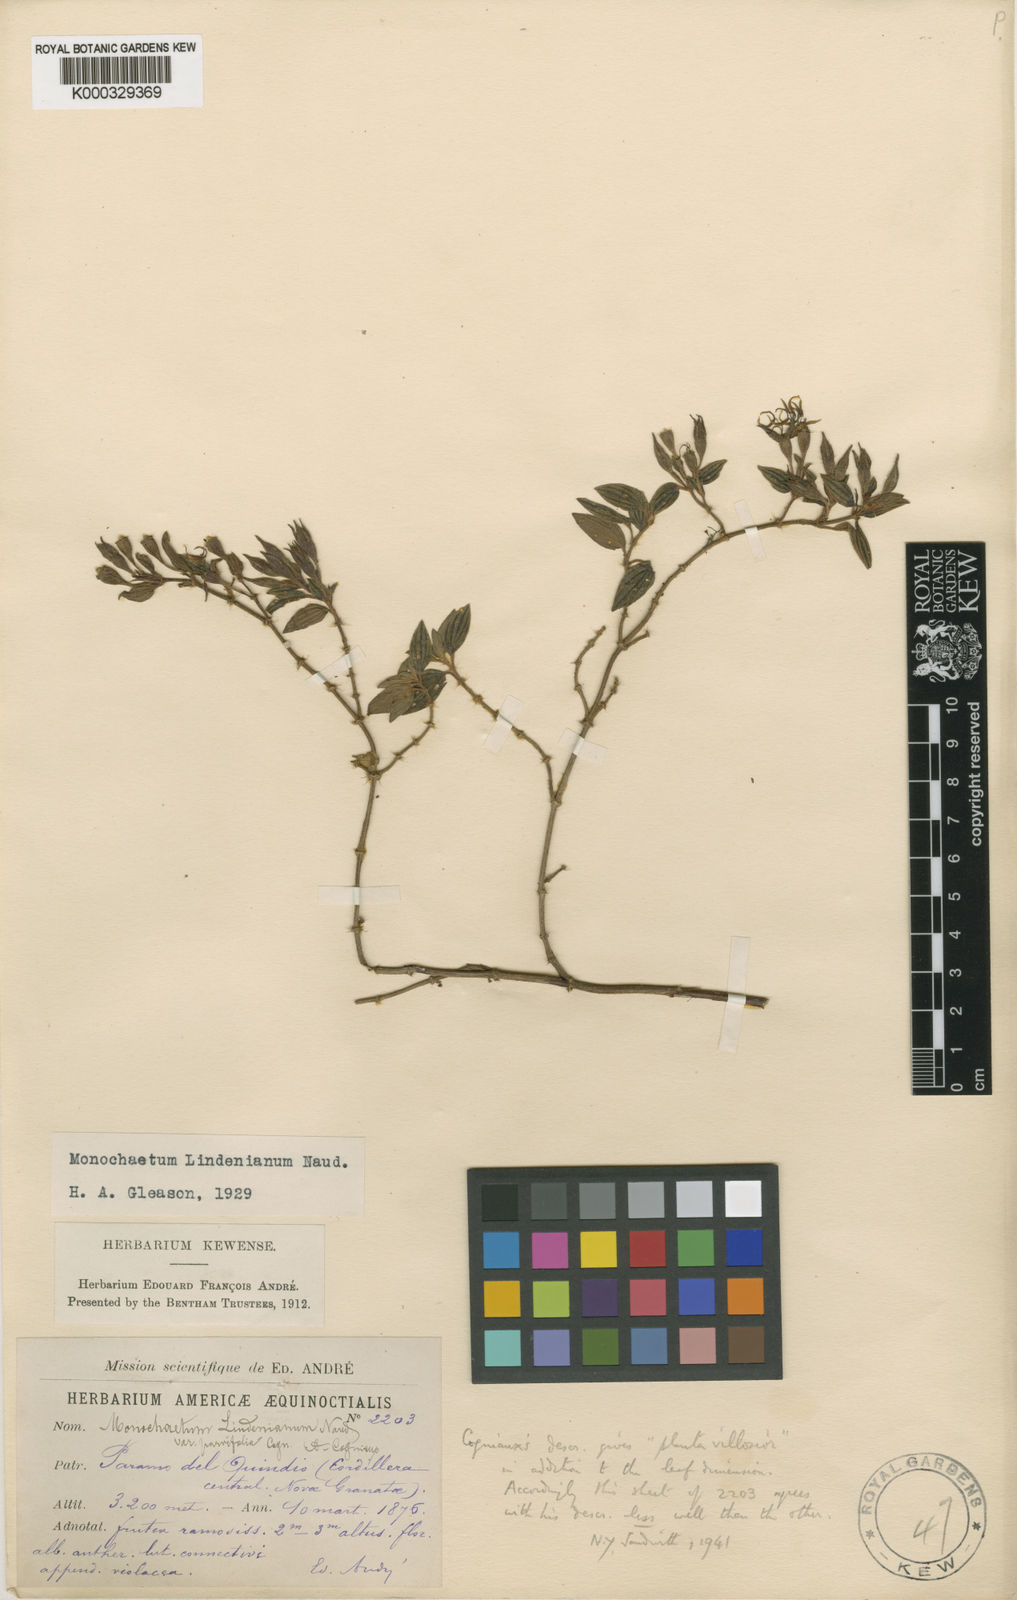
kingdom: Plantae
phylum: Tracheophyta
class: Magnoliopsida
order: Myrtales
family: Melastomataceae
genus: Monochaetum
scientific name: Monochaetum
